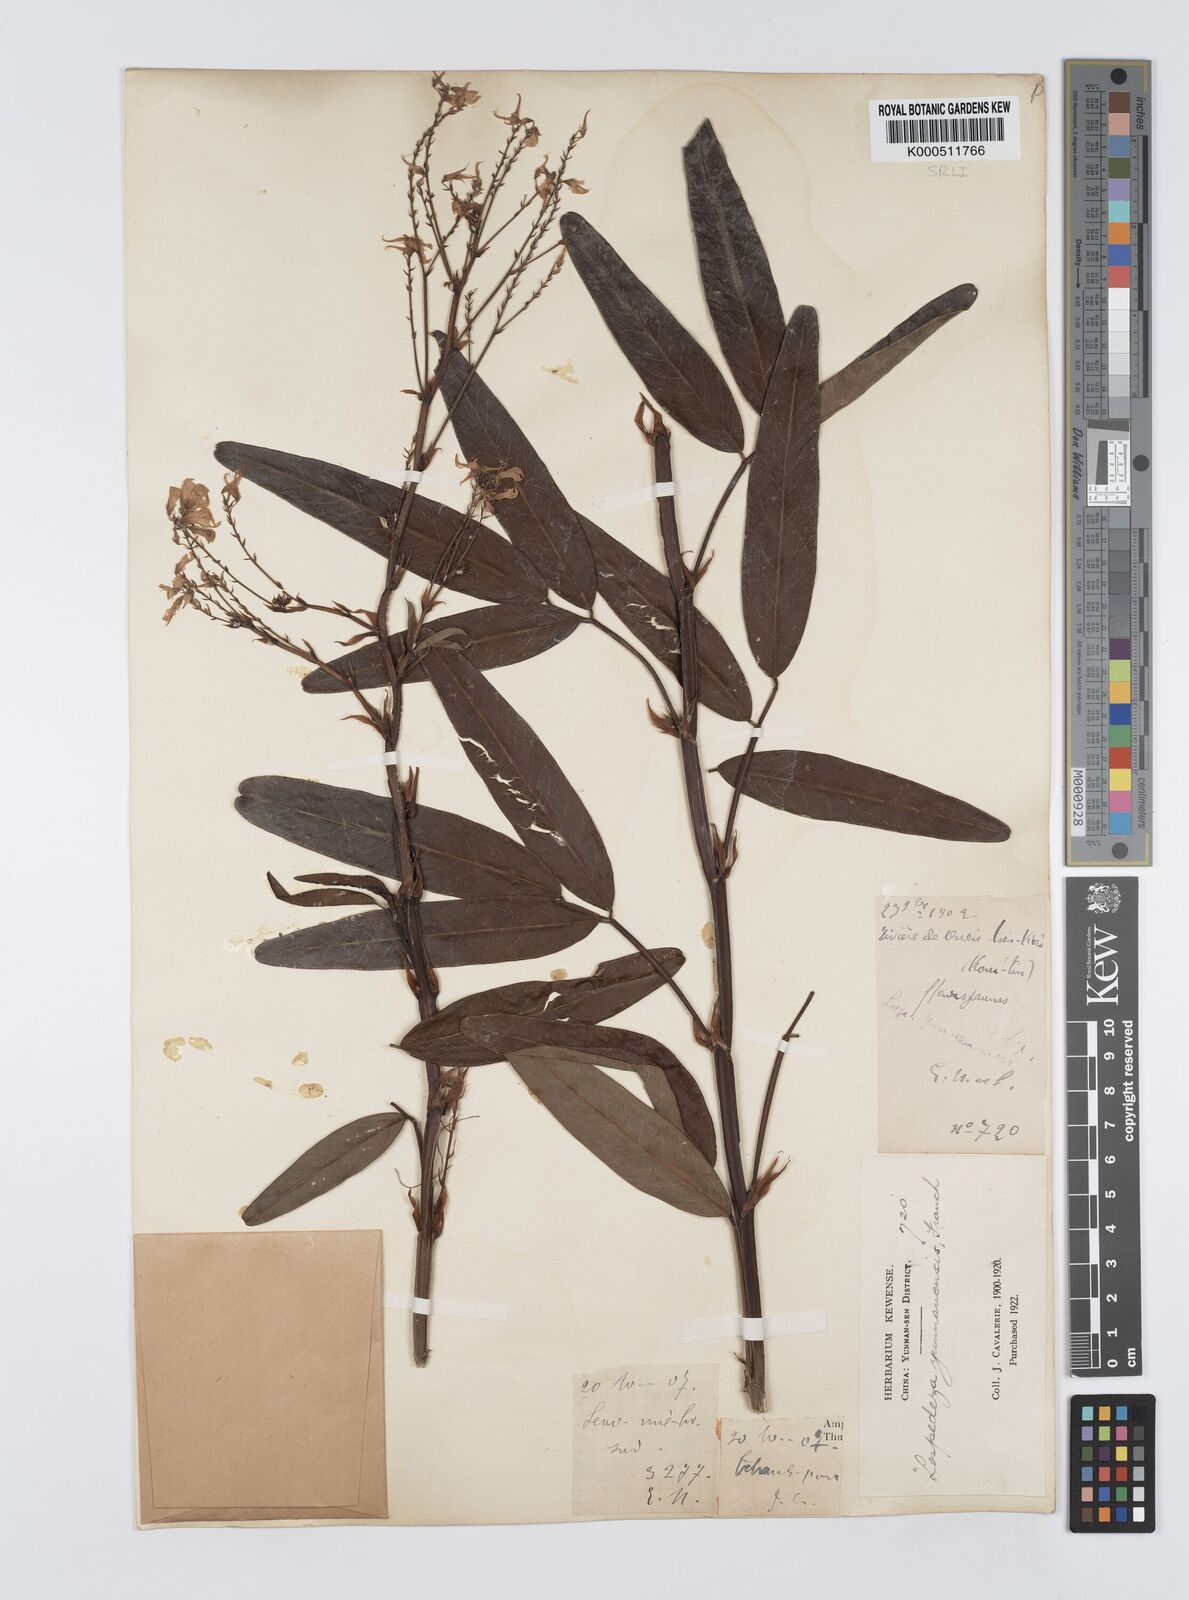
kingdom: Plantae
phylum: Tracheophyta
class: Magnoliopsida
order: Fabales
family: Fabaceae
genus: Campylotropis
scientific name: Campylotropis trigonoclada
